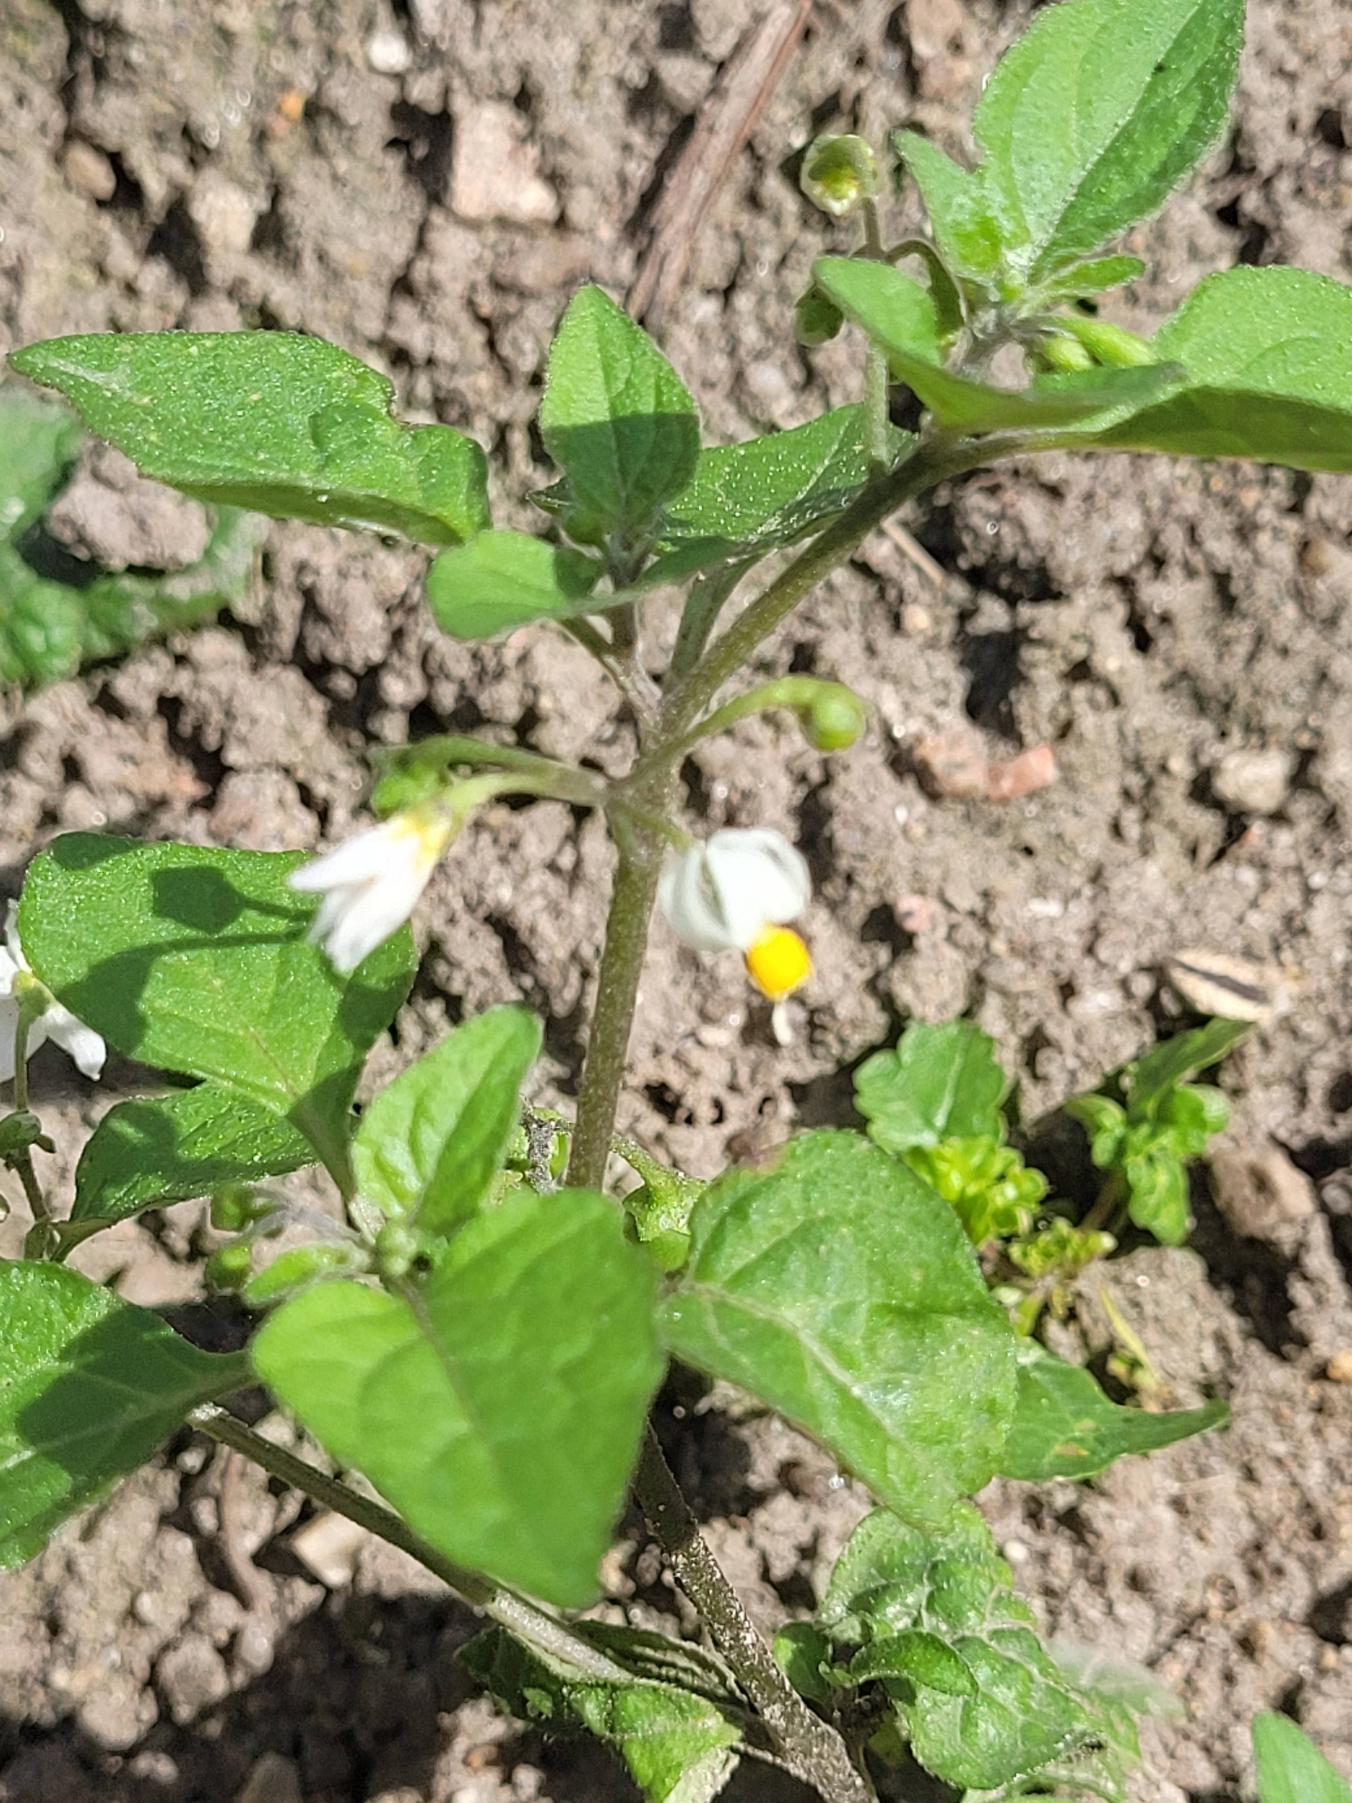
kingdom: Plantae
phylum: Tracheophyta
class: Magnoliopsida
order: Solanales
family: Solanaceae
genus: Solanum
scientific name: Solanum nigrum
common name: Sort natskygge (underart)
